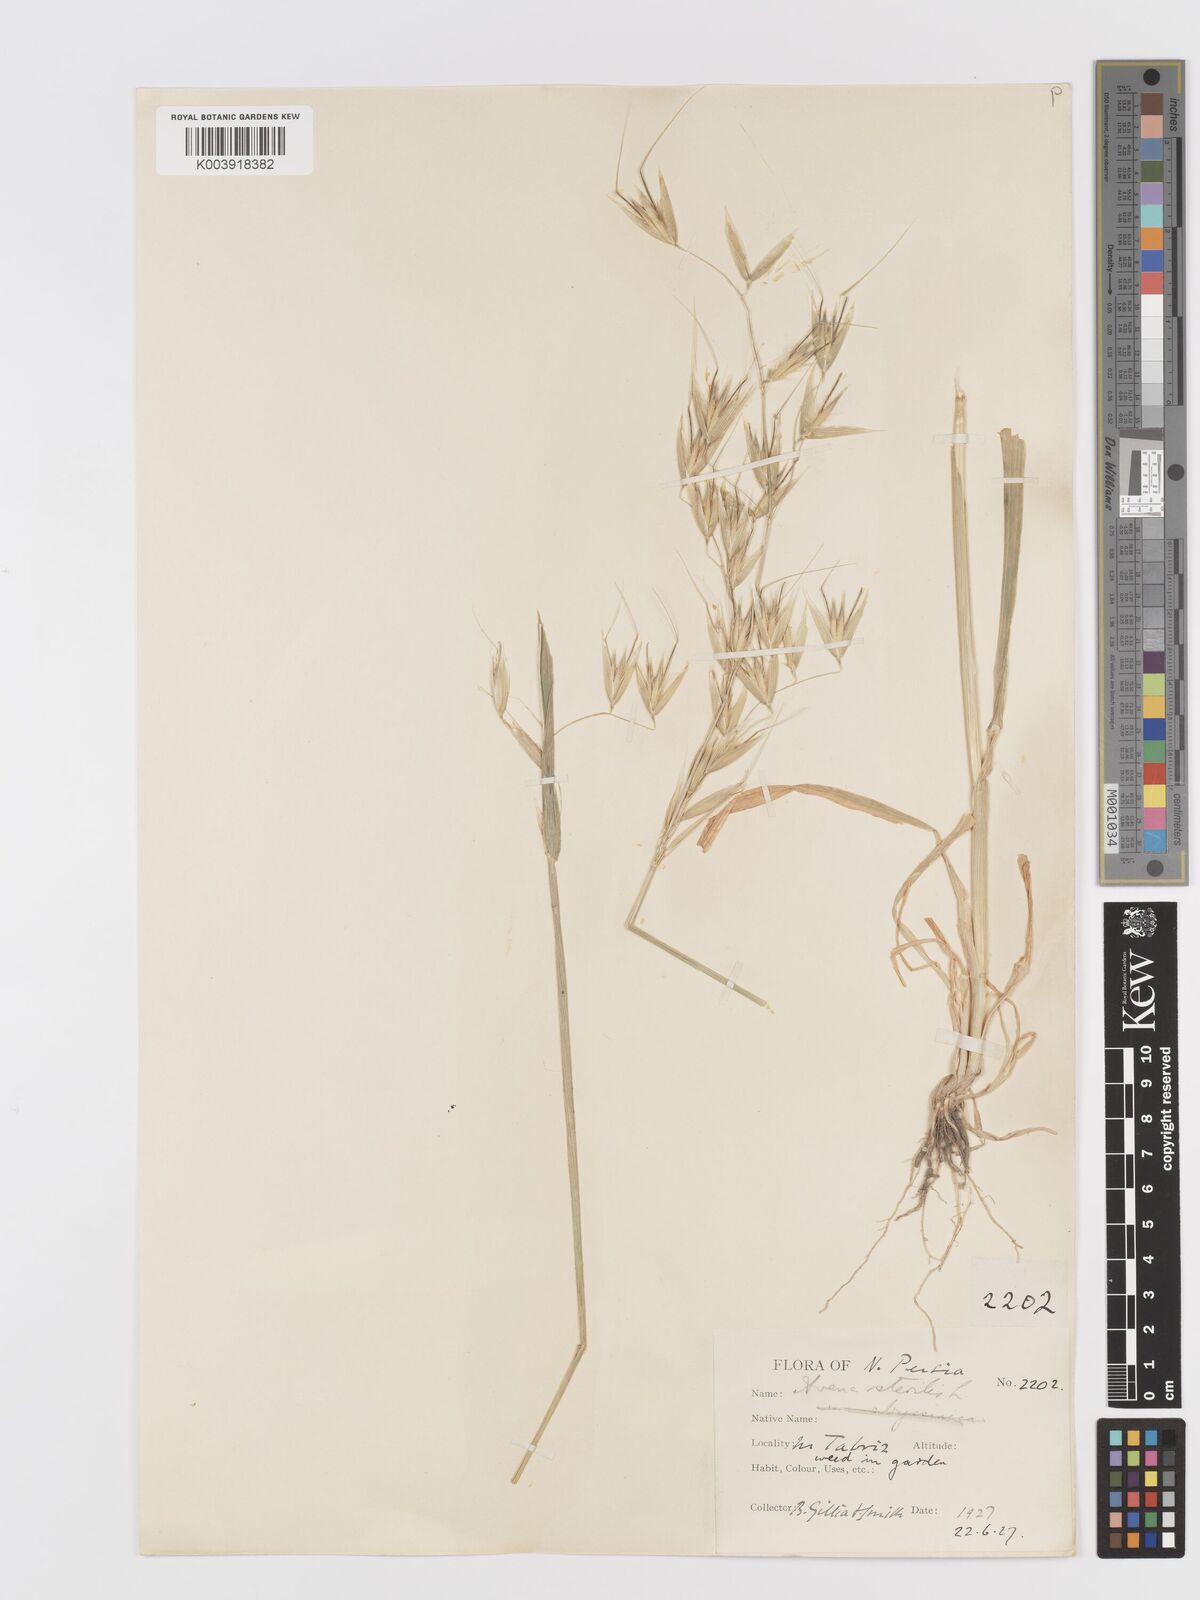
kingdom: Plantae
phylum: Tracheophyta
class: Liliopsida
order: Poales
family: Poaceae
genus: Avena
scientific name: Avena sterilis
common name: Animated oat
